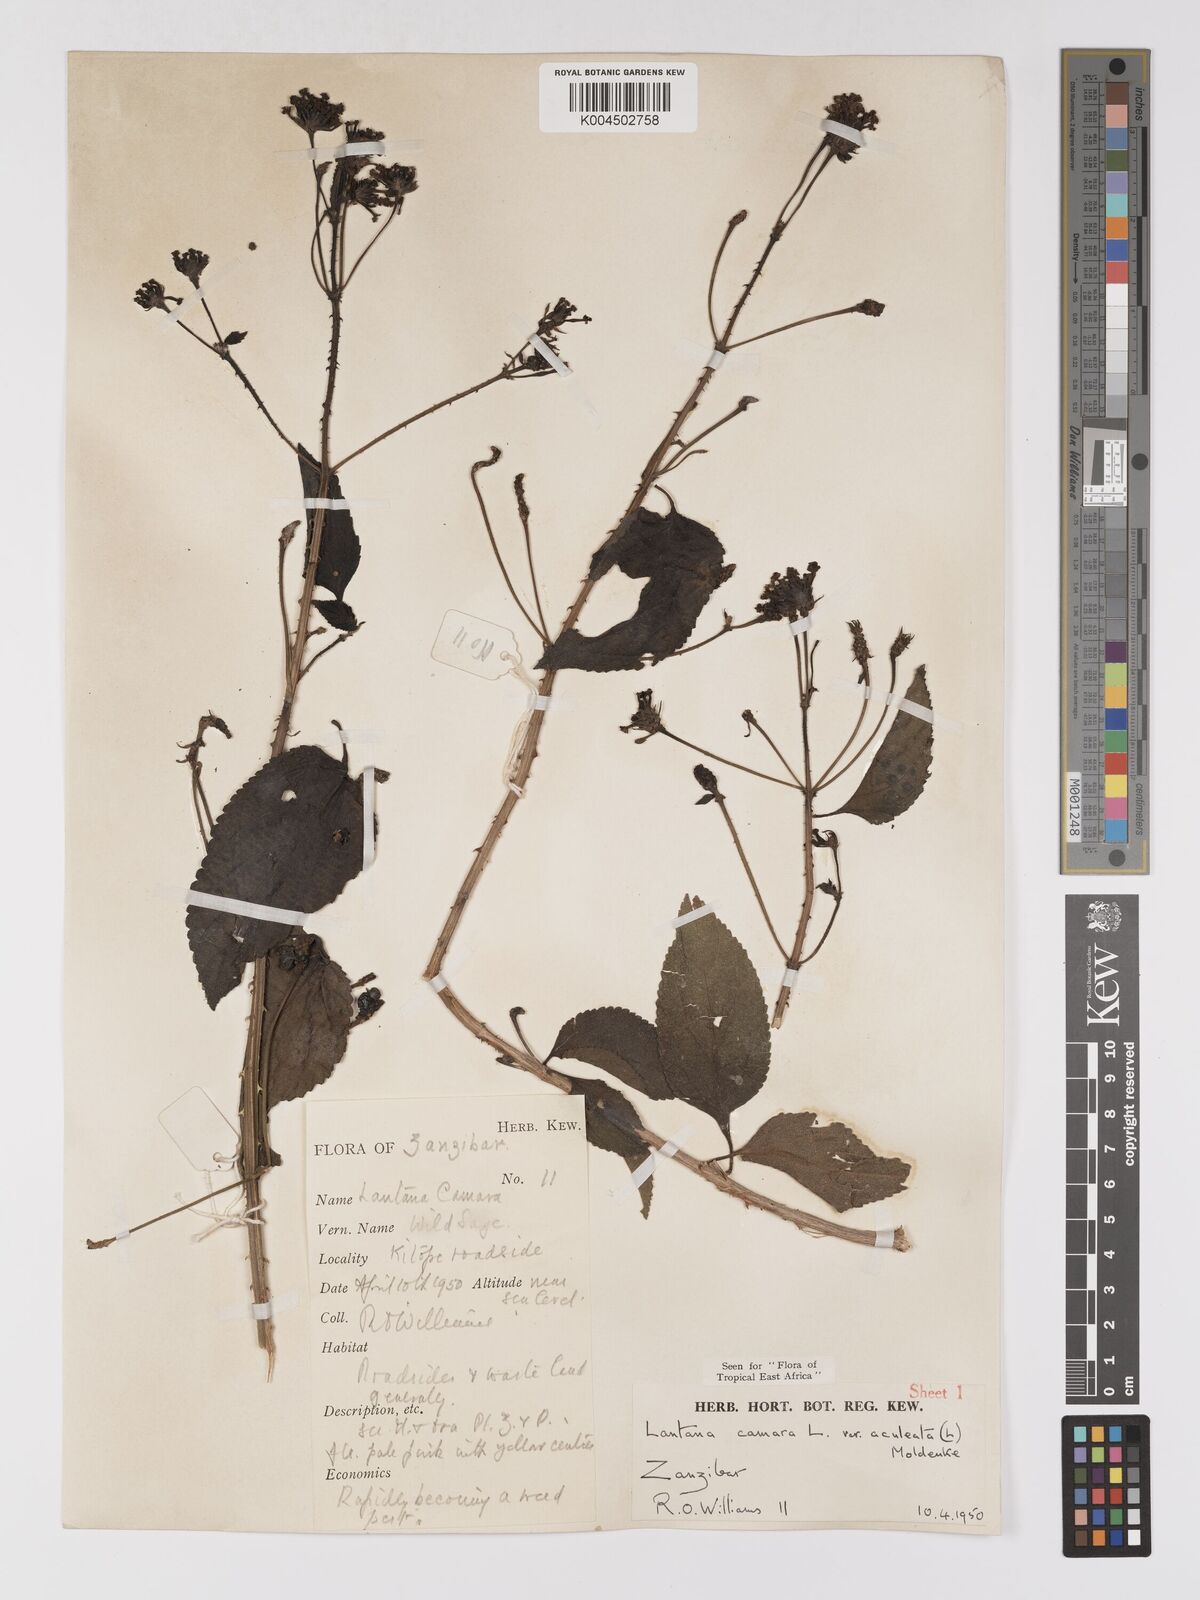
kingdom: Plantae
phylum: Tracheophyta
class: Magnoliopsida
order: Lamiales
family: Verbenaceae
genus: Lantana
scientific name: Lantana camara
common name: Lantana
